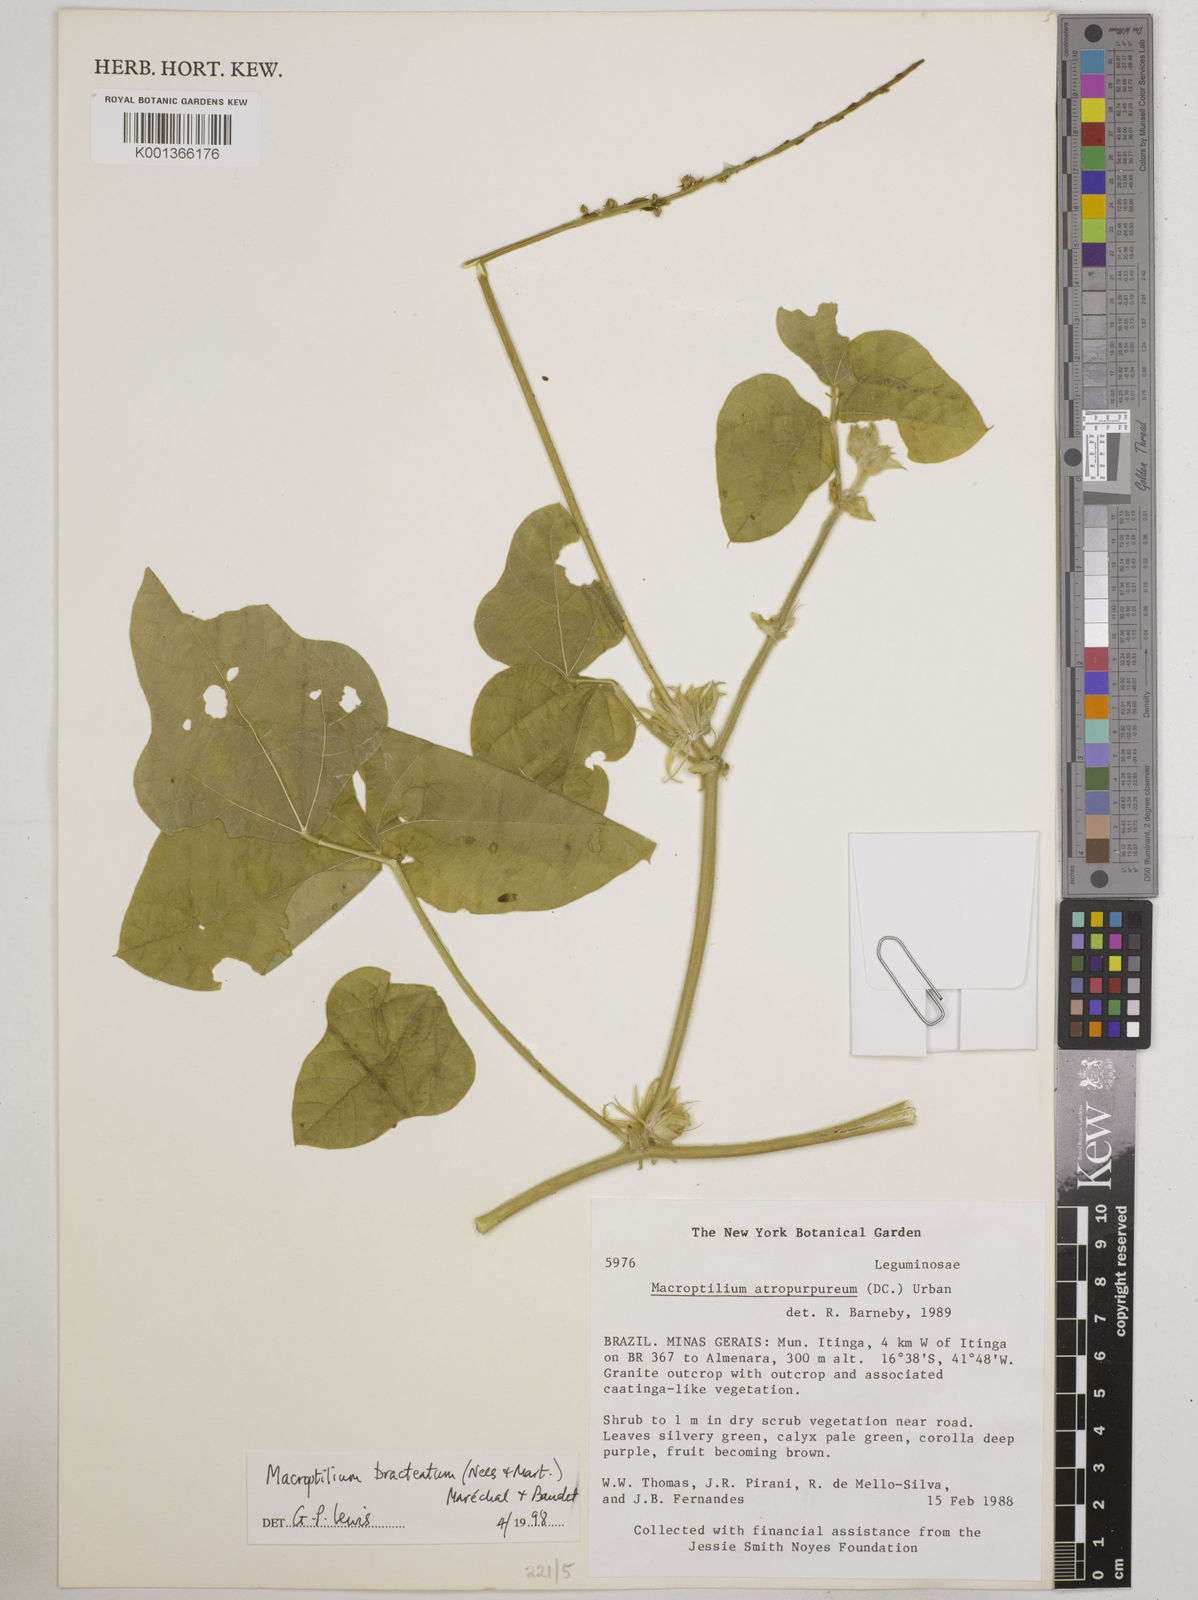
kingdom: Plantae
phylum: Tracheophyta
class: Magnoliopsida
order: Fabales
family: Fabaceae
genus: Macroptilium
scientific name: Macroptilium bracteatum
